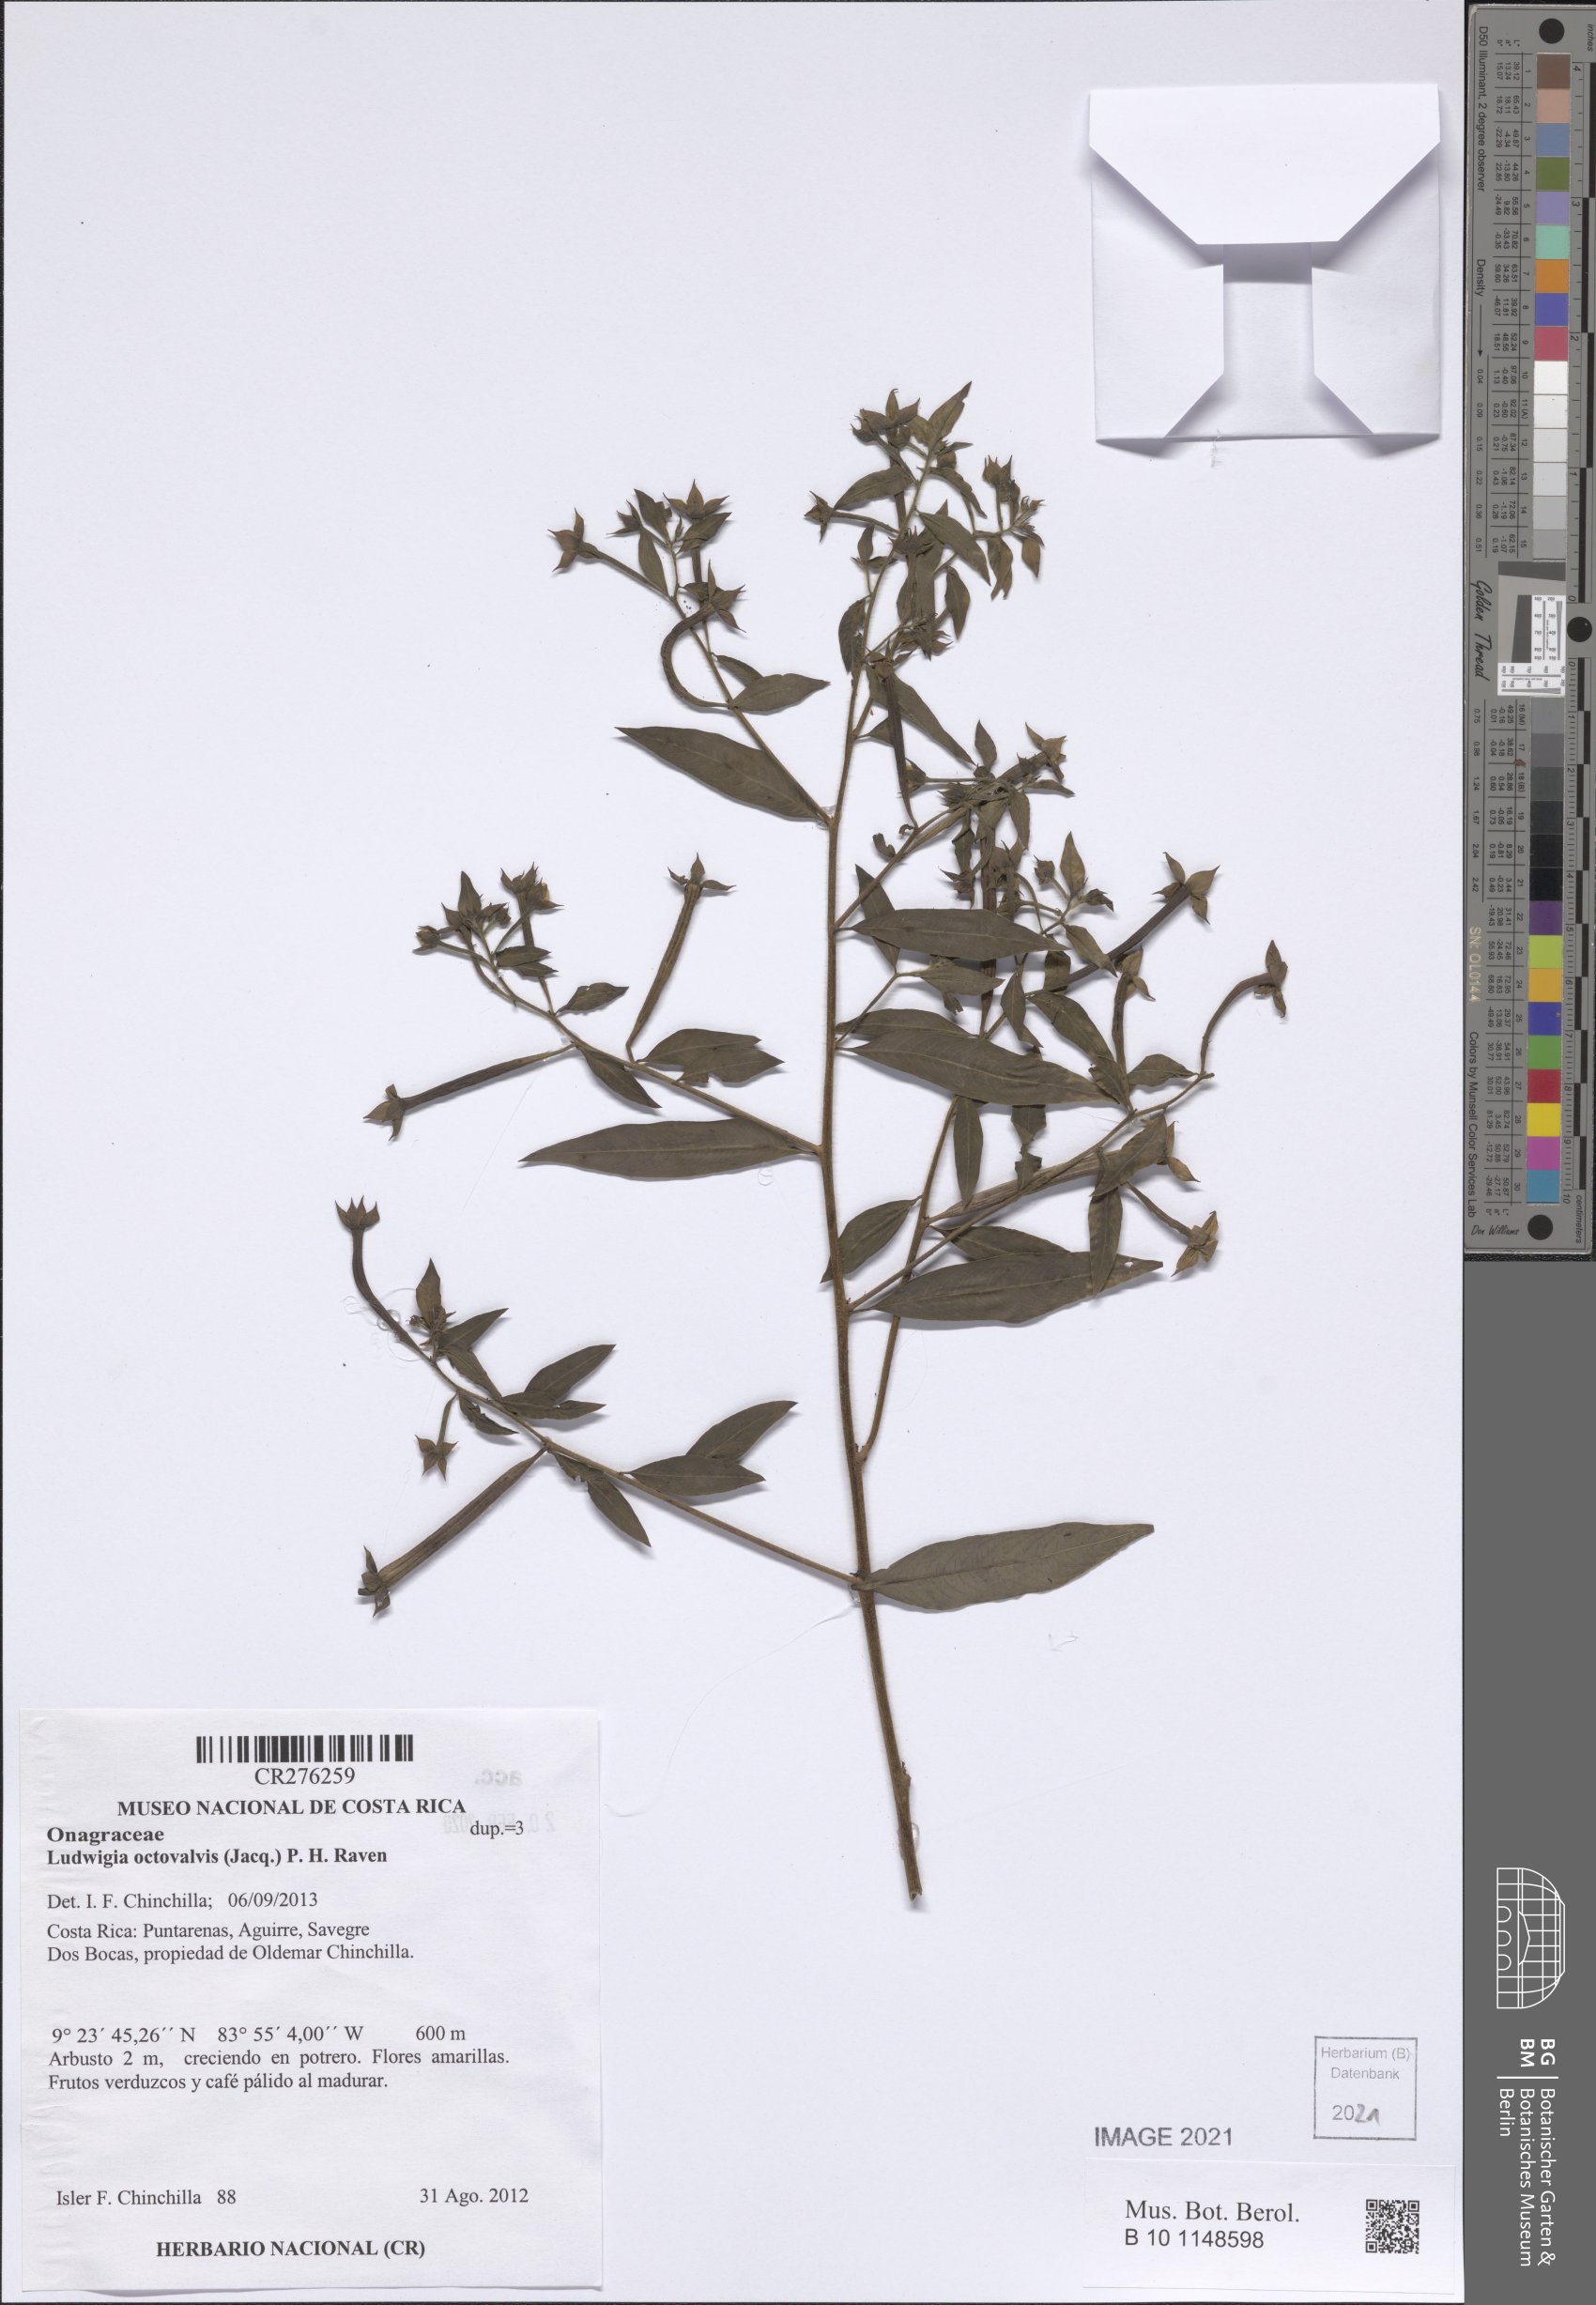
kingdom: Plantae
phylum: Tracheophyta
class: Magnoliopsida
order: Myrtales
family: Onagraceae
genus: Ludwigia
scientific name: Ludwigia octovalvis
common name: Water-primrose
